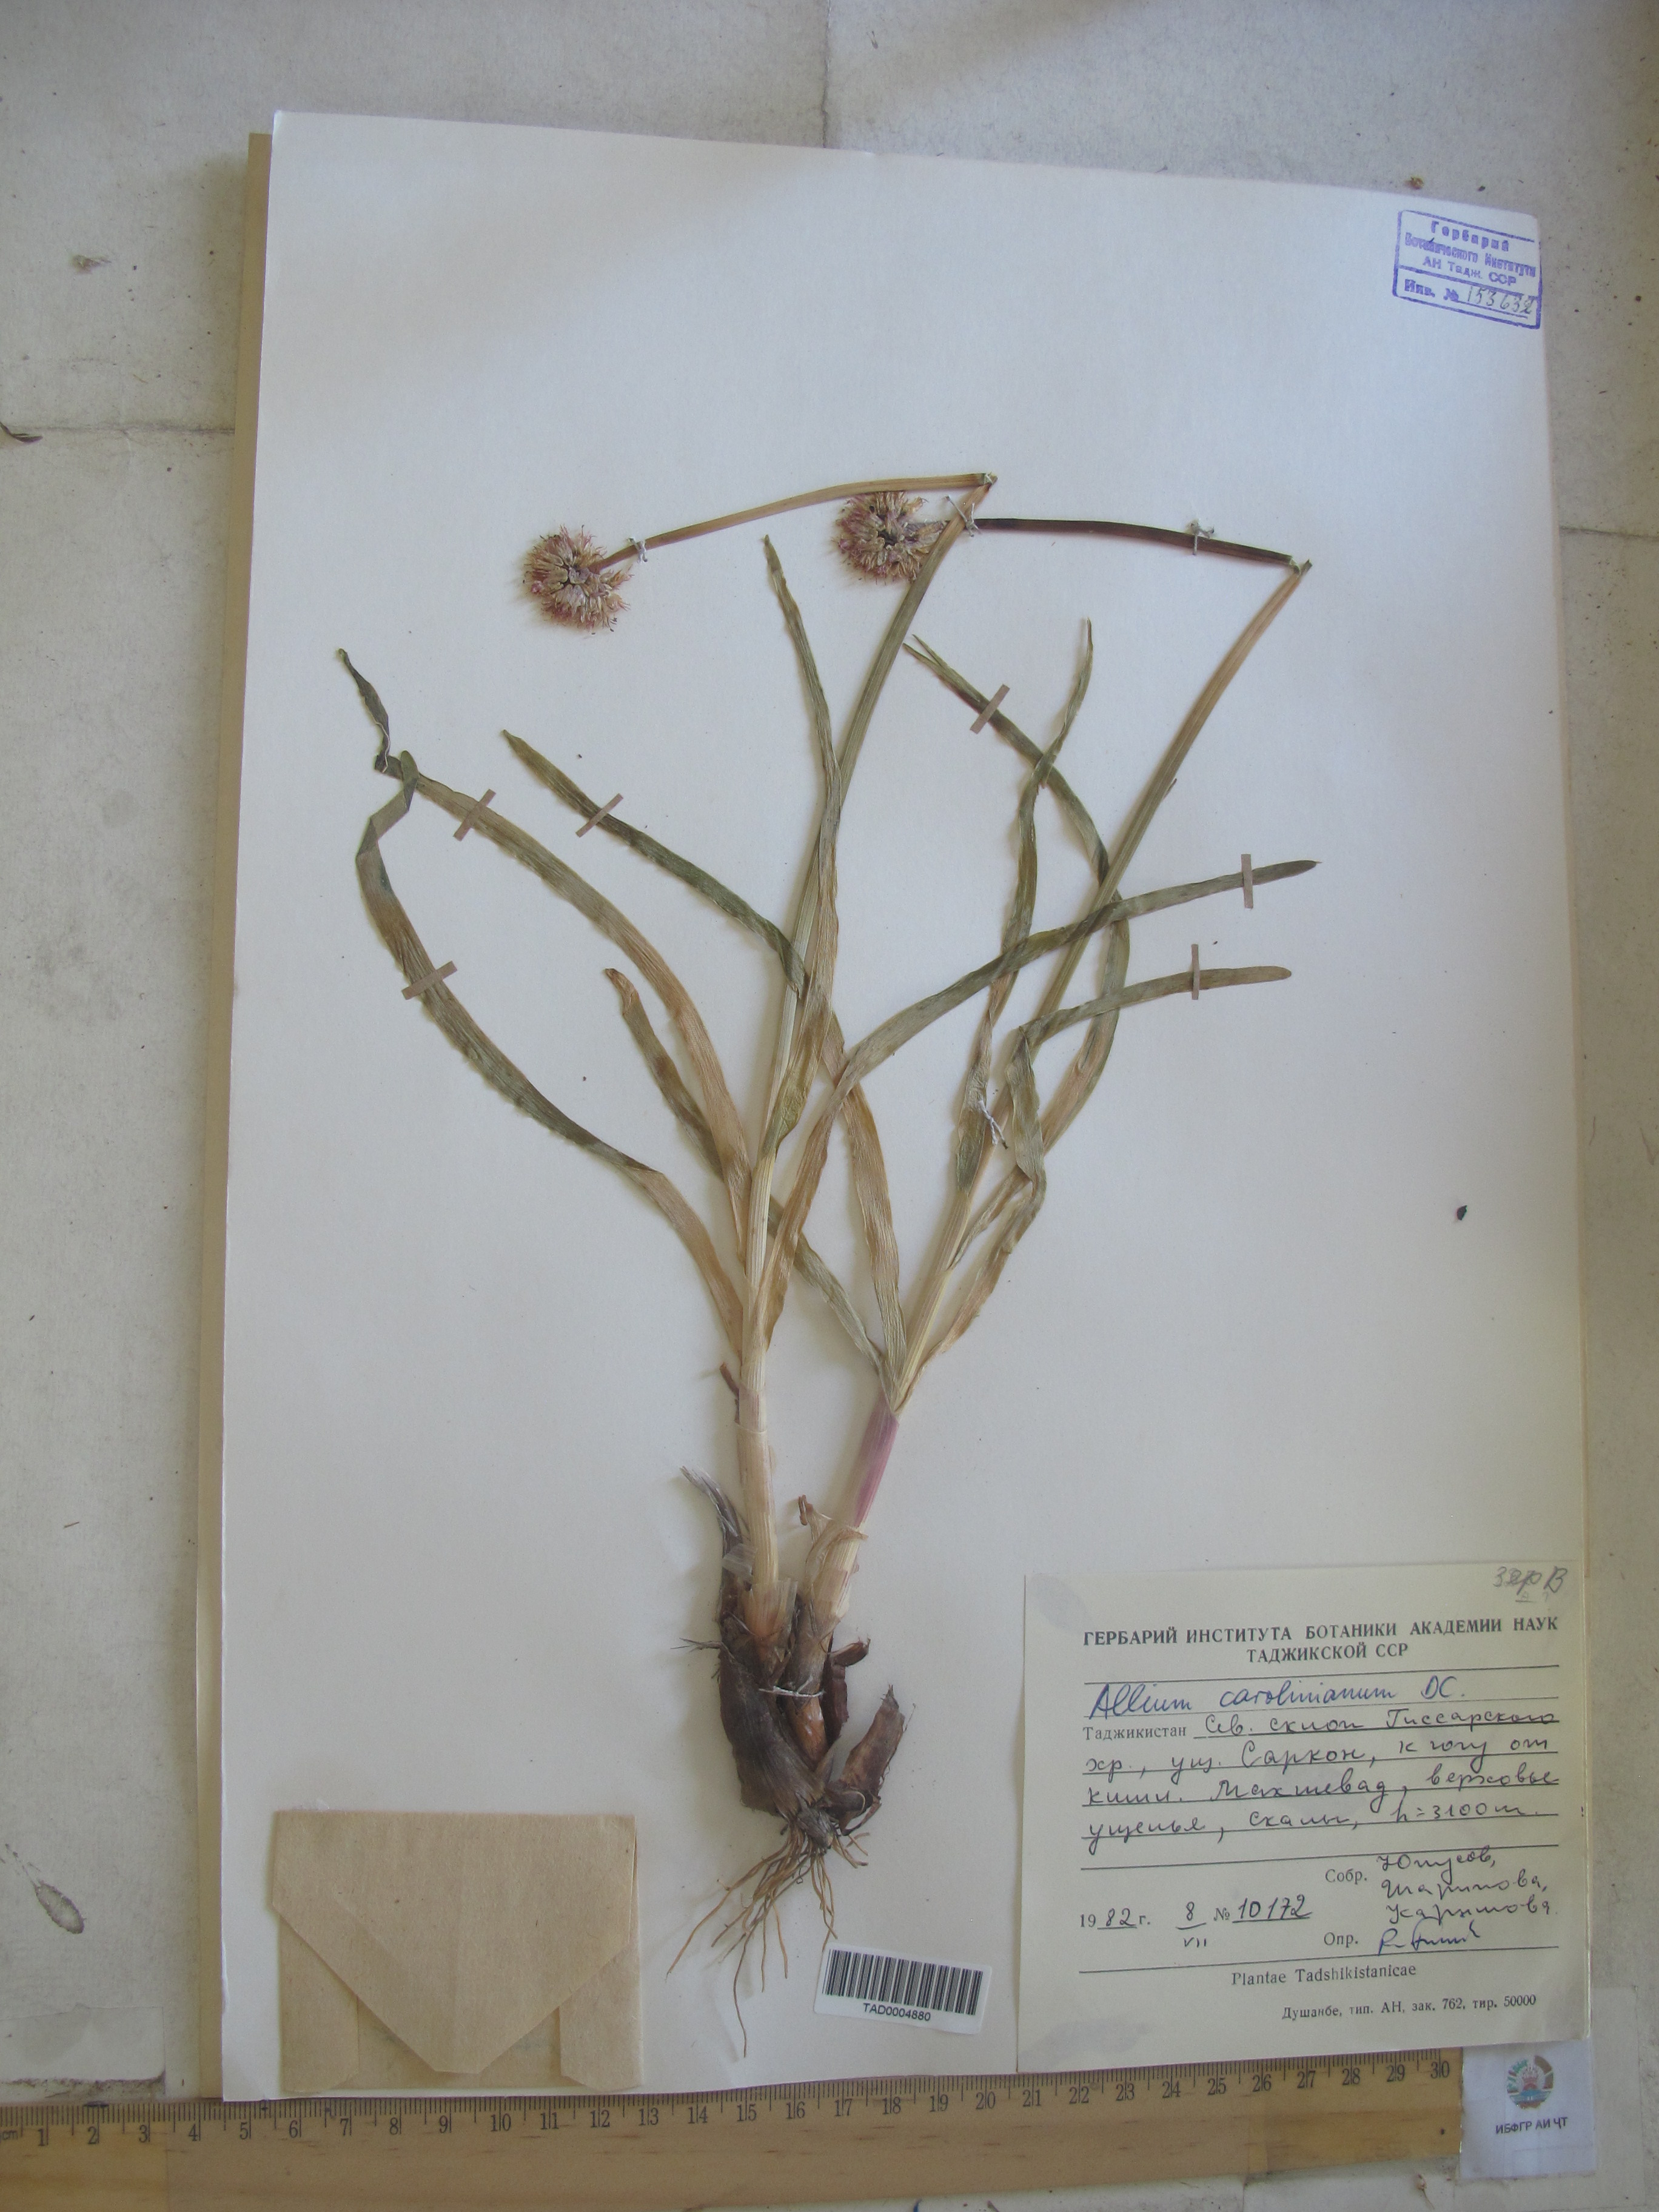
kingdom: Plantae
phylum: Tracheophyta
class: Liliopsida
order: Asparagales
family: Amaryllidaceae
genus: Allium
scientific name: Allium carolinianum
